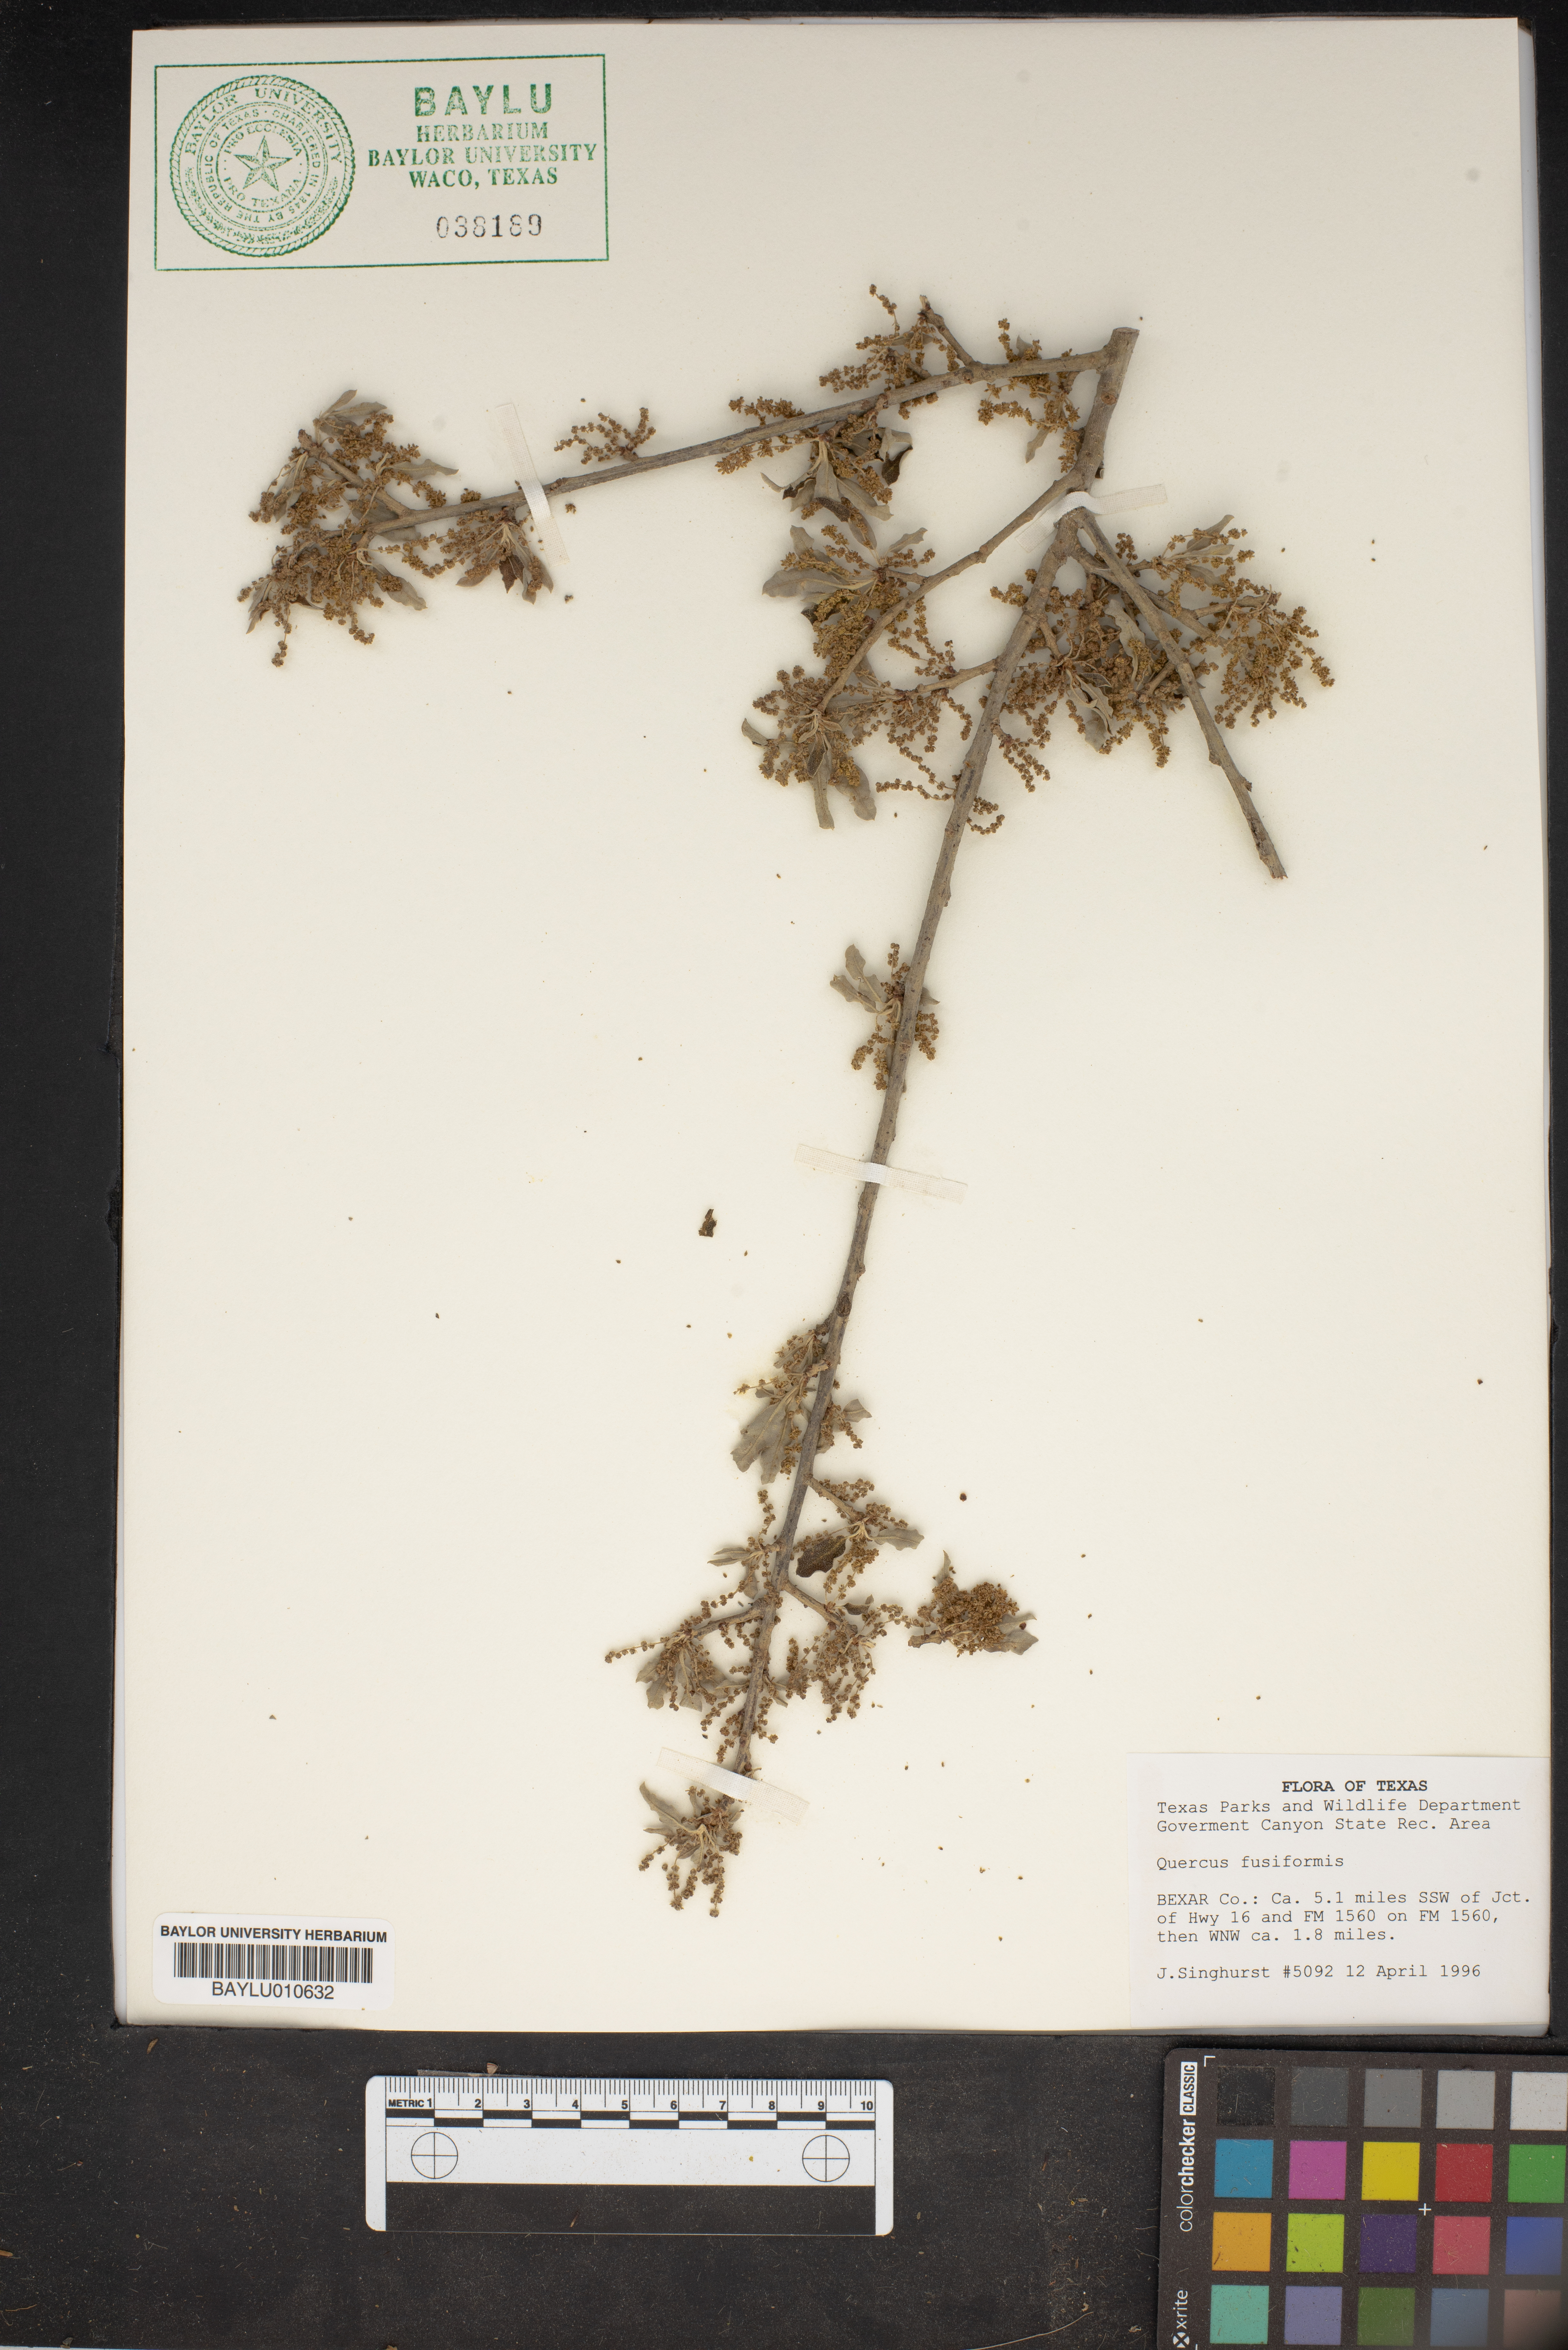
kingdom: Plantae
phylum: Tracheophyta
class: Magnoliopsida
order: Fagales
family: Fagaceae
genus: Quercus
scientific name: Quercus fusiformis
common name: Texas live oak
